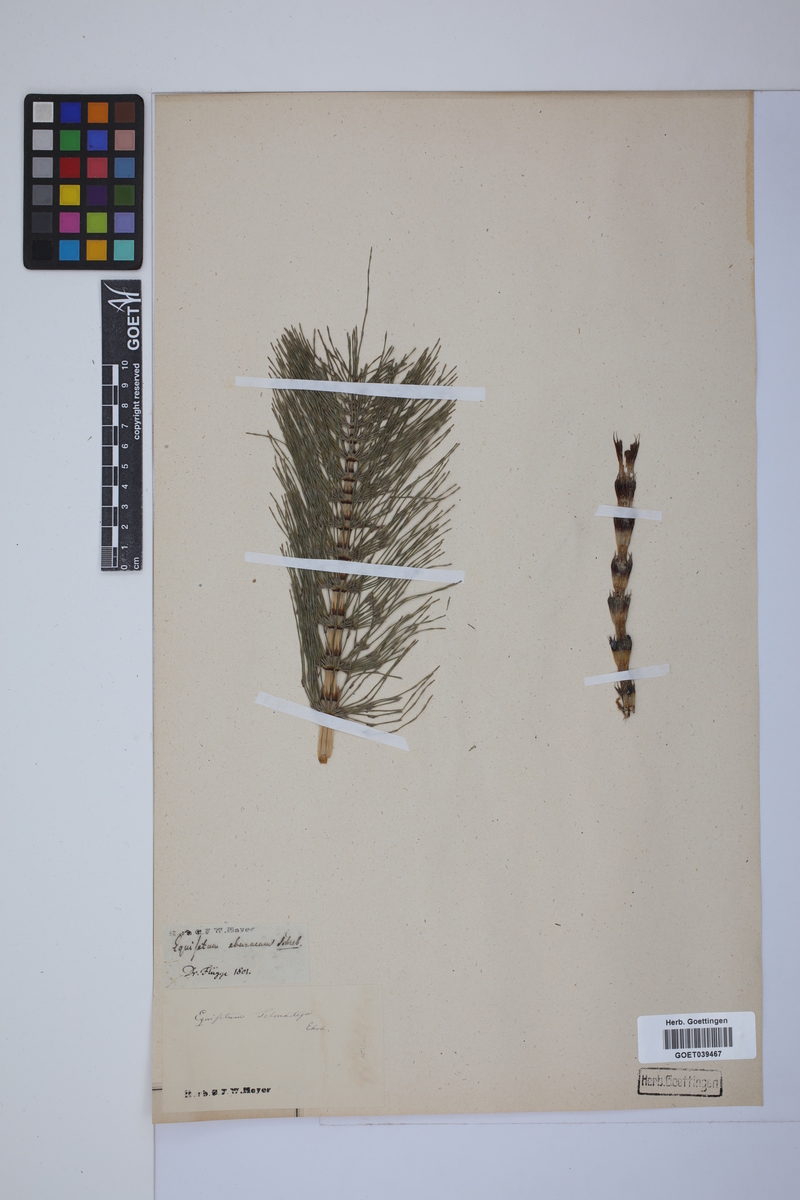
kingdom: Plantae
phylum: Tracheophyta
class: Polypodiopsida
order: Equisetales
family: Equisetaceae
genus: Equisetum
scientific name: Equisetum telmateia
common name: Great horsetail
